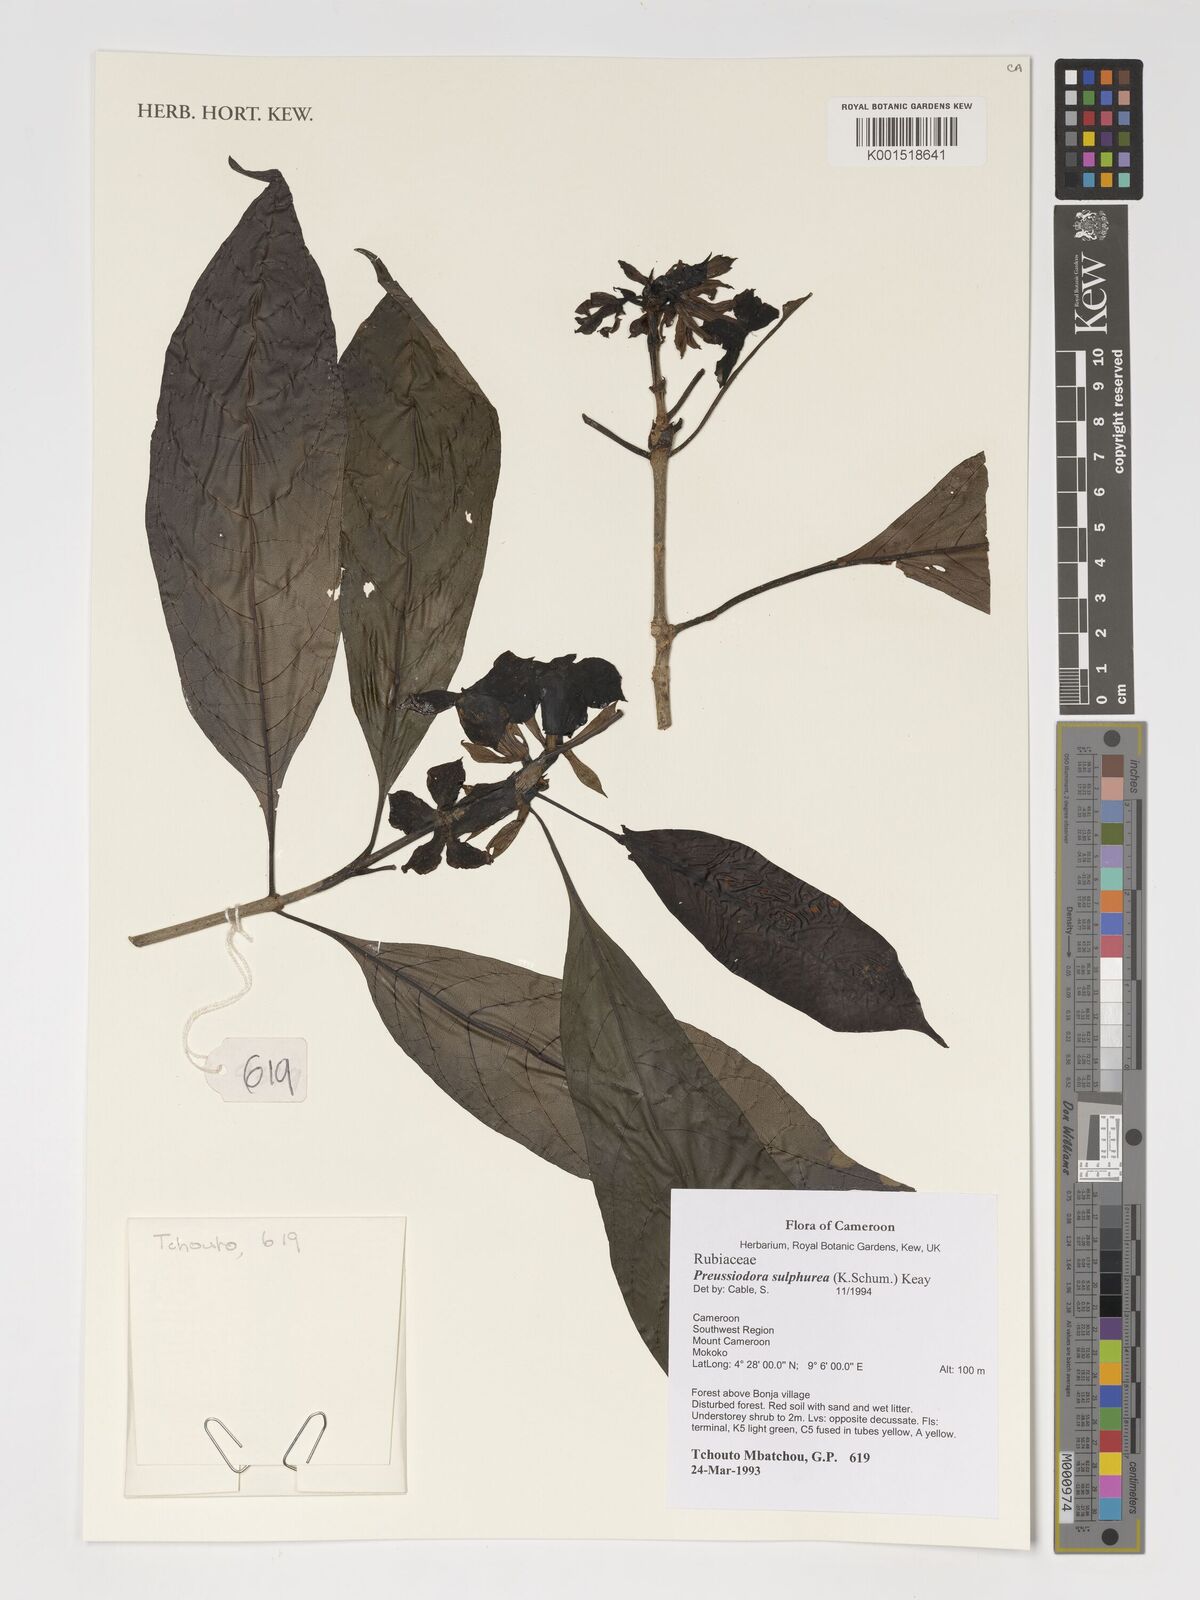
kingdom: Plantae
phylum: Tracheophyta
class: Magnoliopsida
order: Gentianales
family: Rubiaceae
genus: Preussiodora
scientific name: Preussiodora sulphurea
